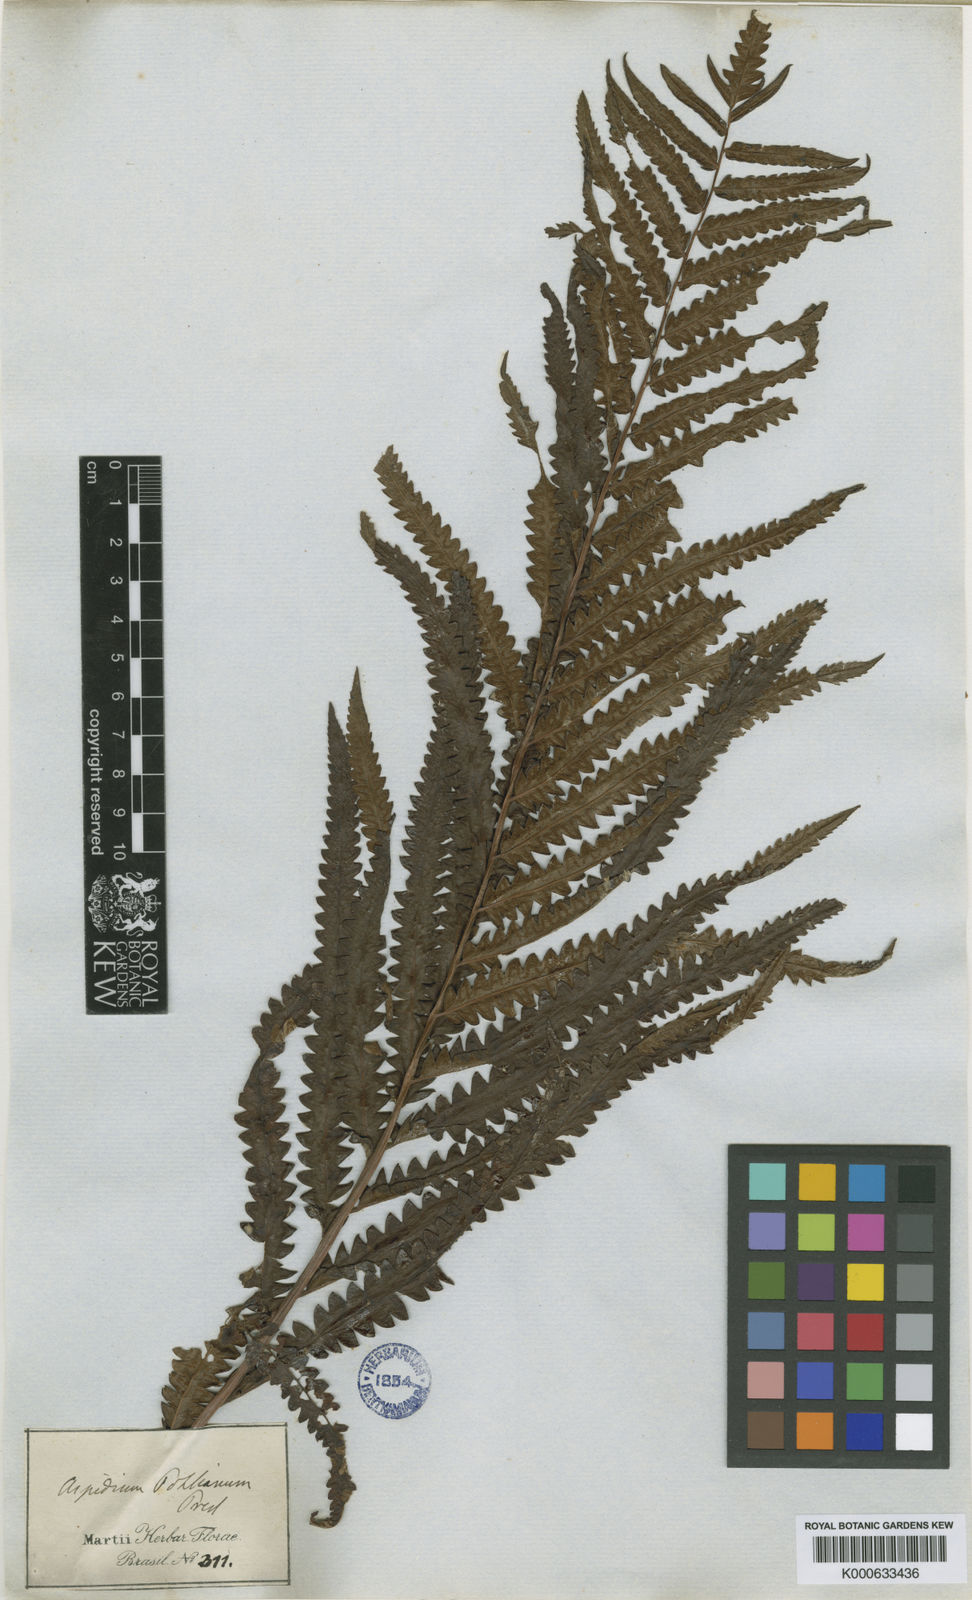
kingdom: Plantae
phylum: Tracheophyta
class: Polypodiopsida
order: Polypodiales
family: Thelypteridaceae
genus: Cyclosorus
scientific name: Cyclosorus
